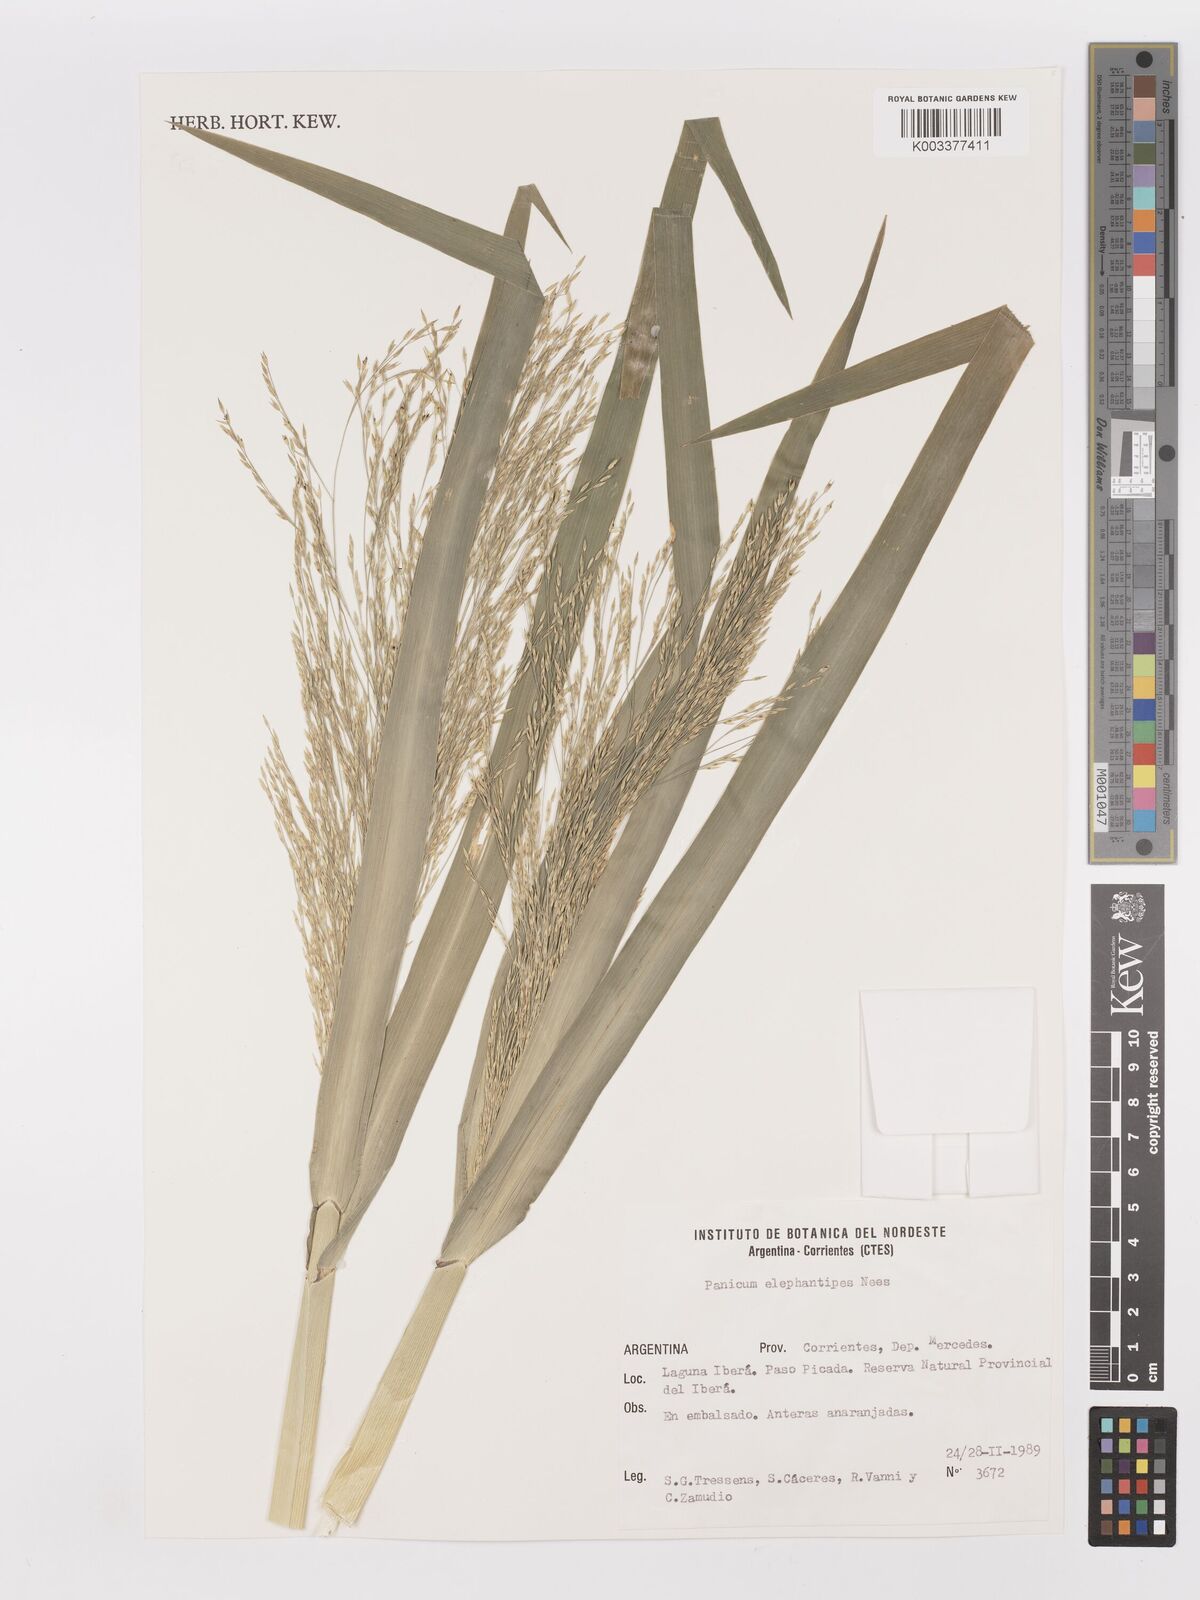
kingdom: Plantae
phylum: Tracheophyta
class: Liliopsida
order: Poales
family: Poaceae
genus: Panicum
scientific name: Panicum
